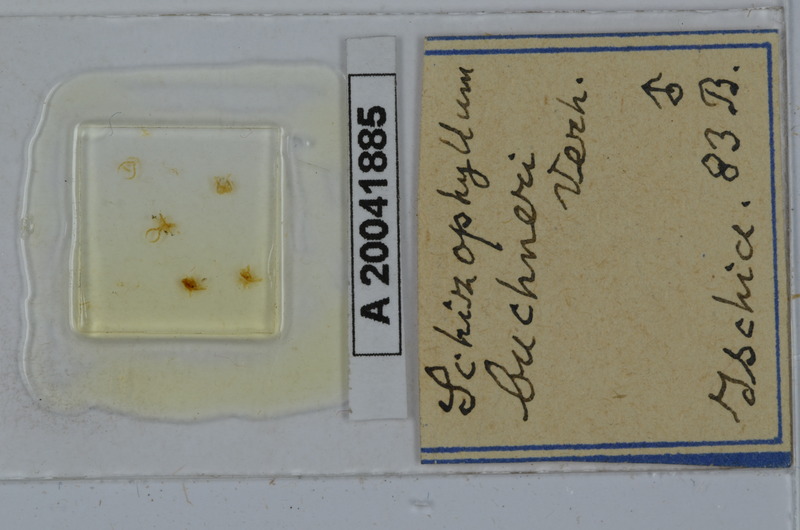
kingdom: Animalia
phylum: Arthropoda
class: Diplopoda
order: Julida
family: Julidae
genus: Schizophyllum
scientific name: Schizophyllum buchneri
